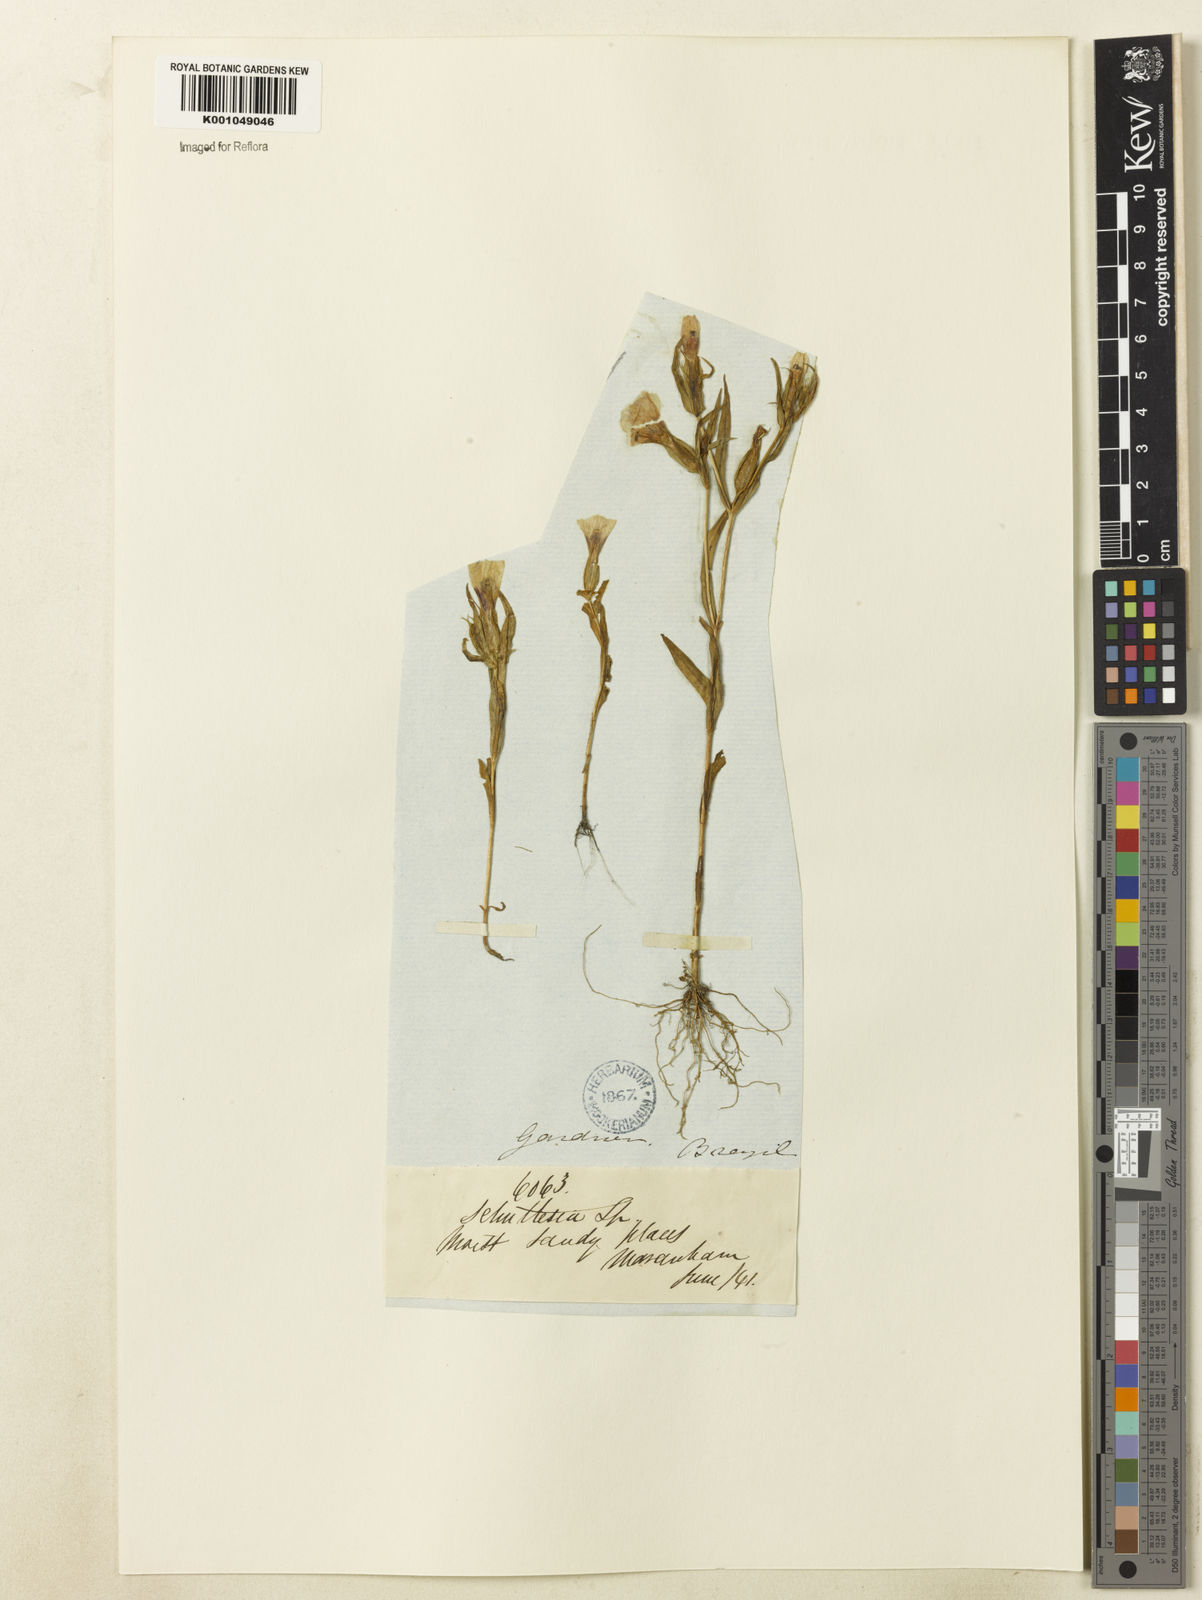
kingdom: Plantae
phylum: Tracheophyta
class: Magnoliopsida
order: Gentianales
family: Gentianaceae
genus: Schultesia
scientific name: Schultesia guianensis
